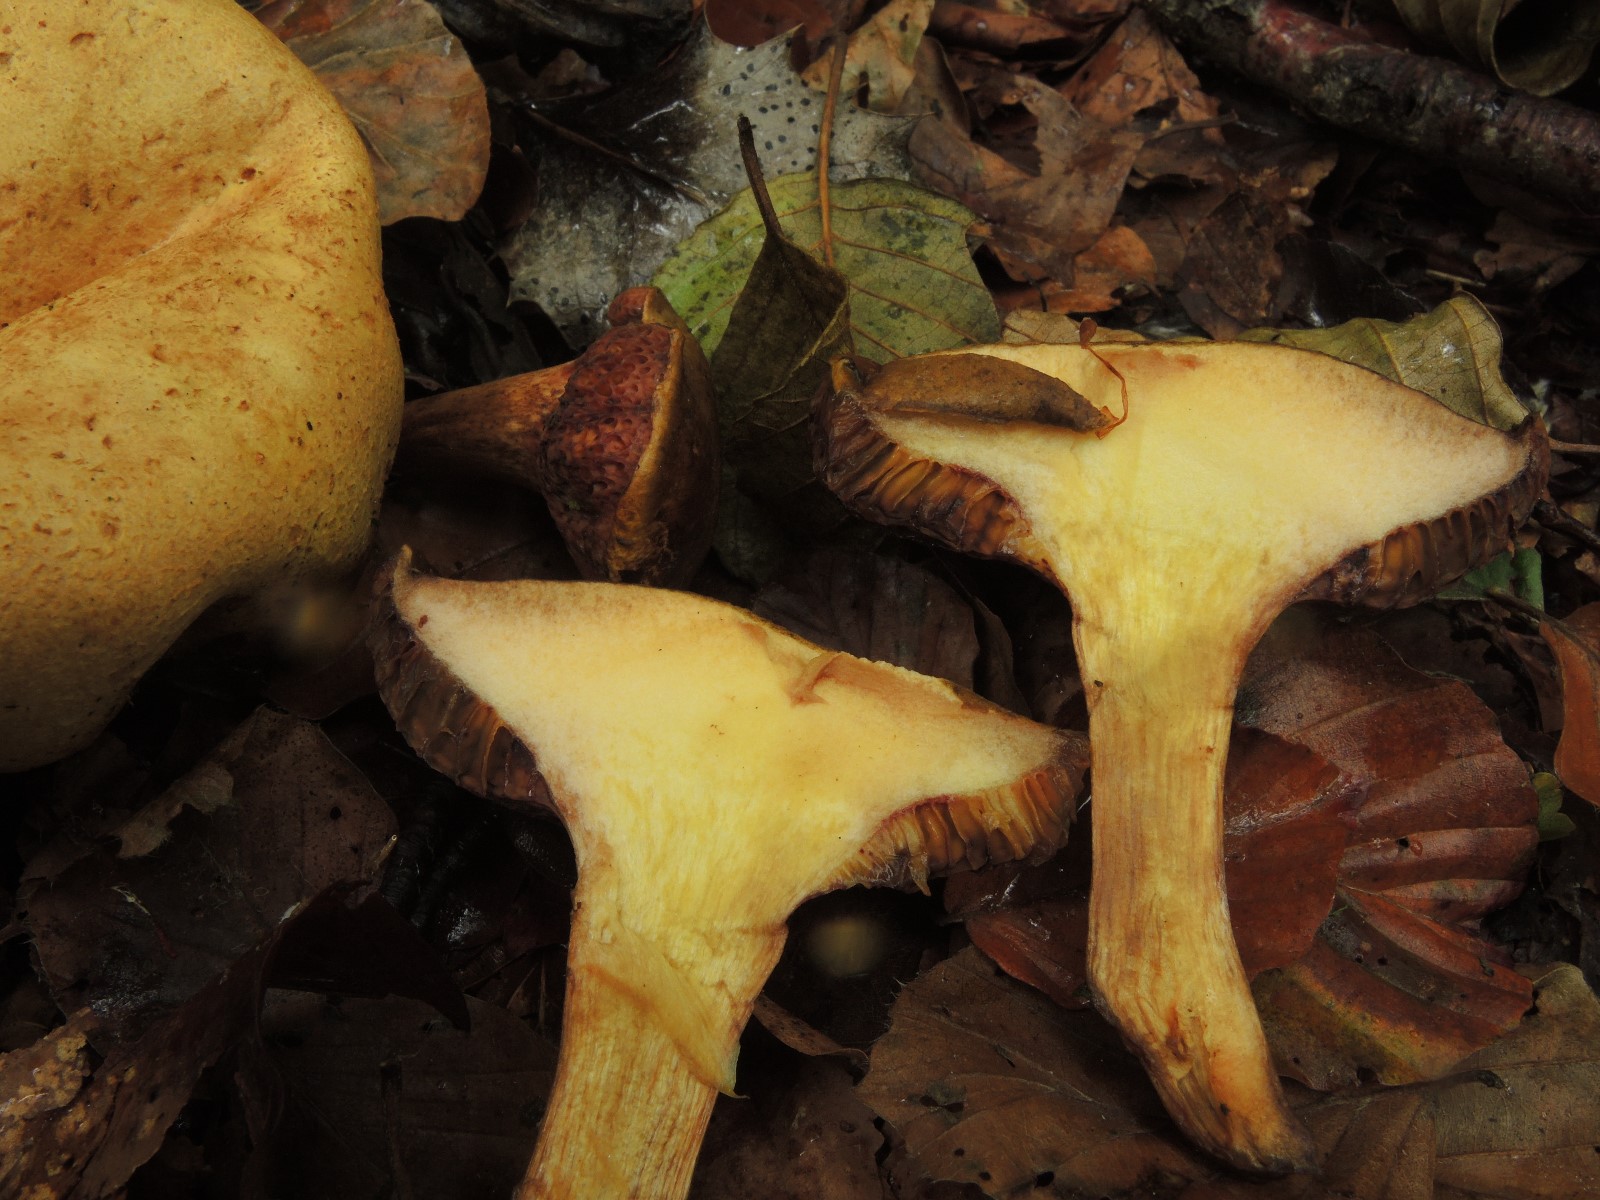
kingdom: Fungi
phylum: Basidiomycota
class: Agaricomycetes
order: Boletales
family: Boletaceae
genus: Pseudoboletus
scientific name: Pseudoboletus parasiticus
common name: snyltende rørhat
